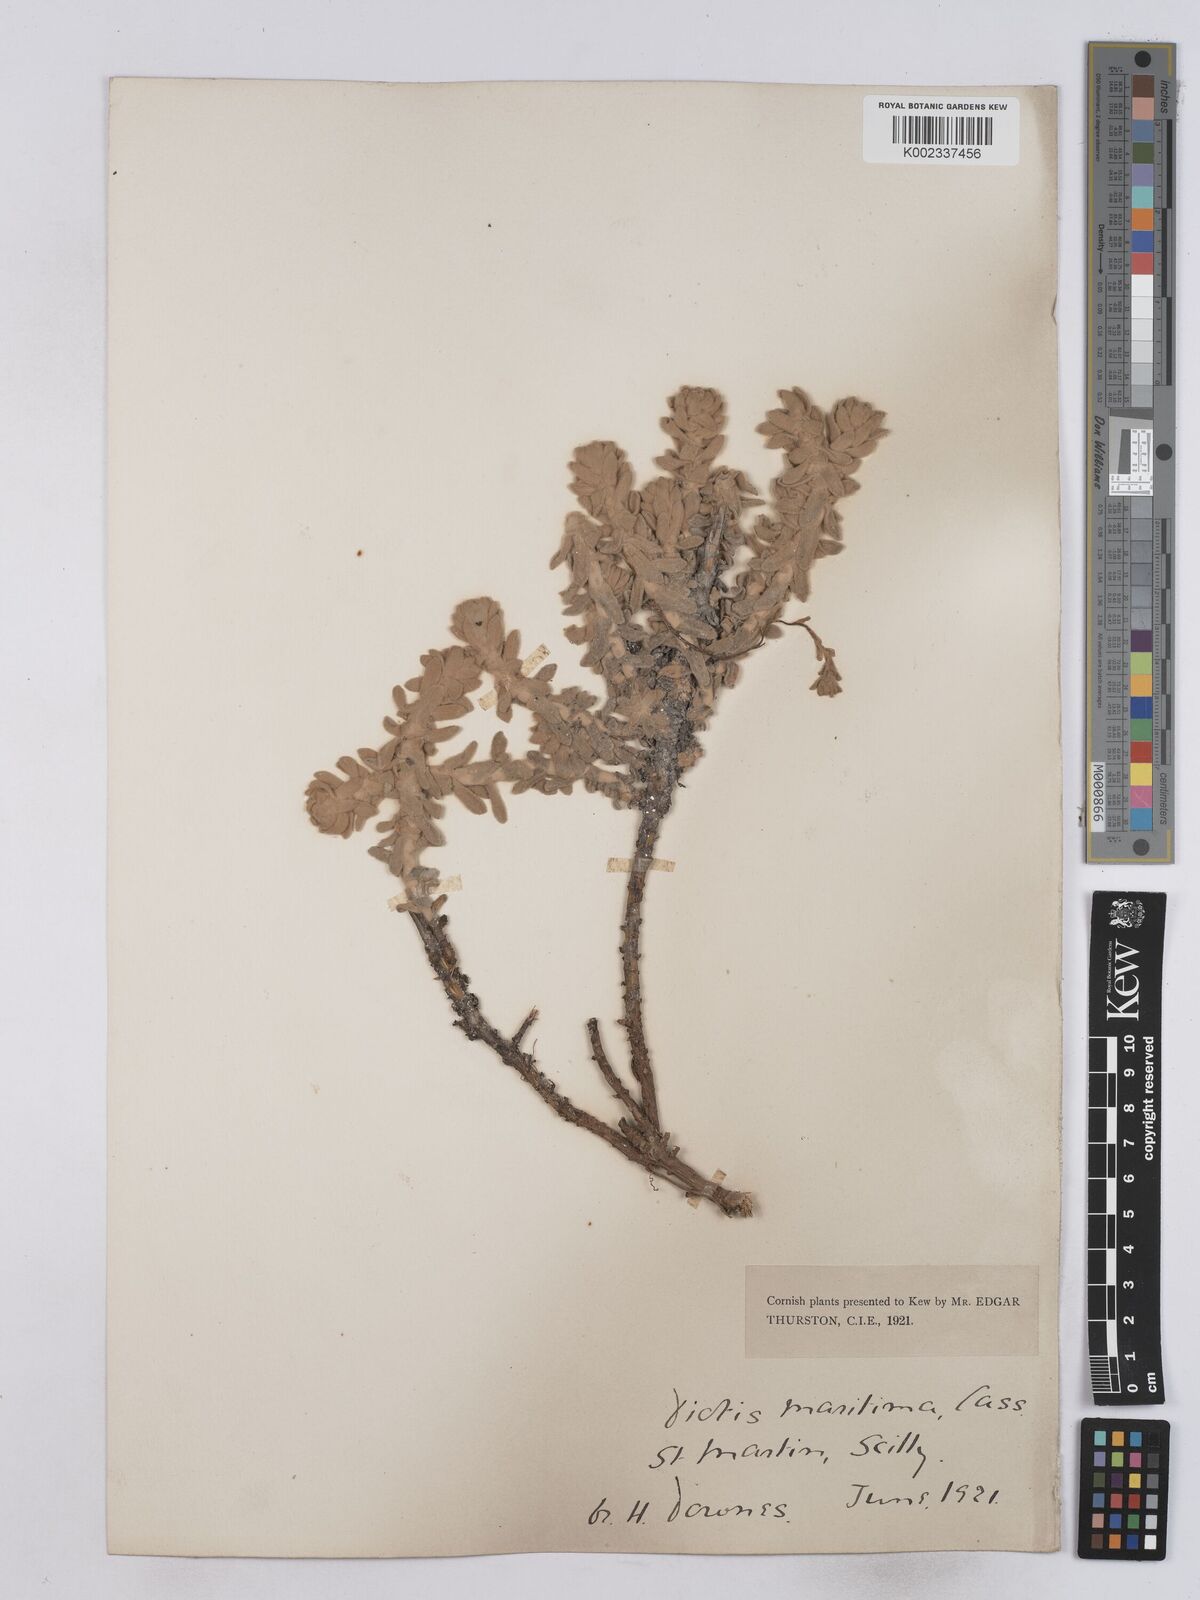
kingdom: Plantae
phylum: Tracheophyta
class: Magnoliopsida
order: Asterales
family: Asteraceae
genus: Achillea
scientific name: Achillea maritima
